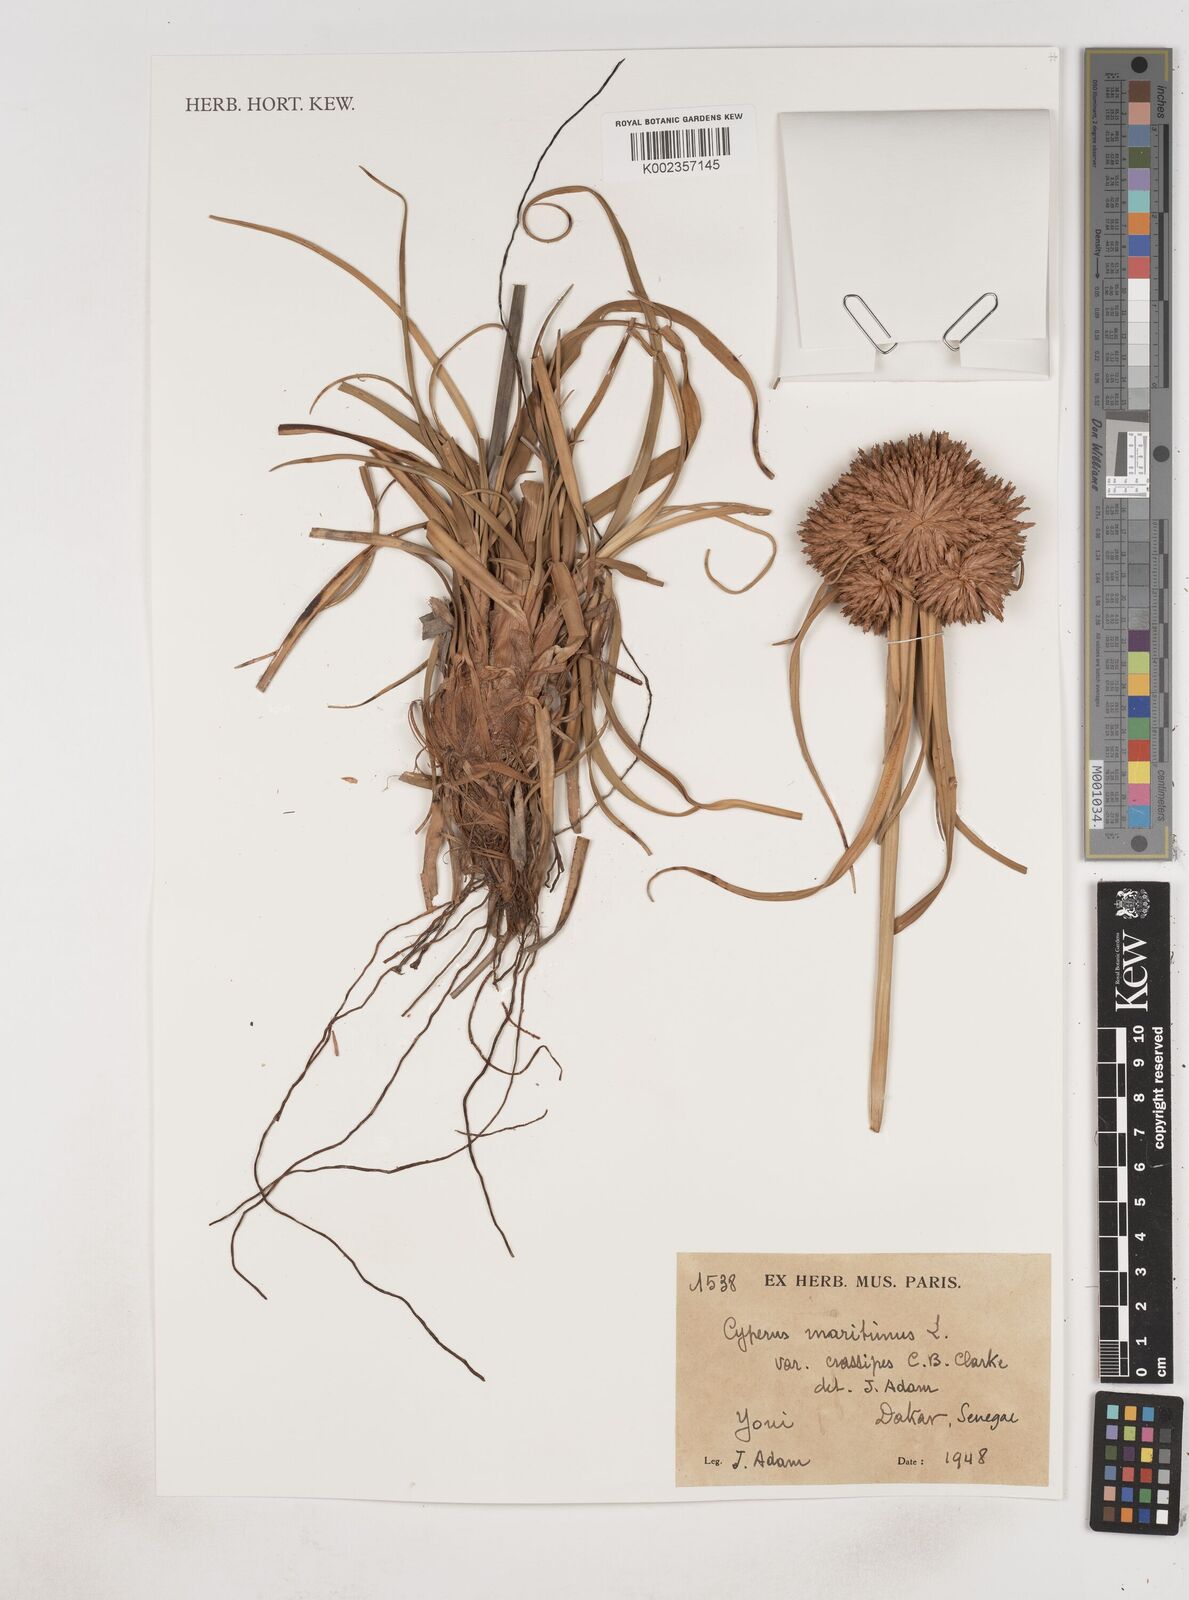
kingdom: Plantae
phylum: Tracheophyta
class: Liliopsida
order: Poales
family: Cyperaceae
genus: Cyperus
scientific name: Cyperus crassipes
